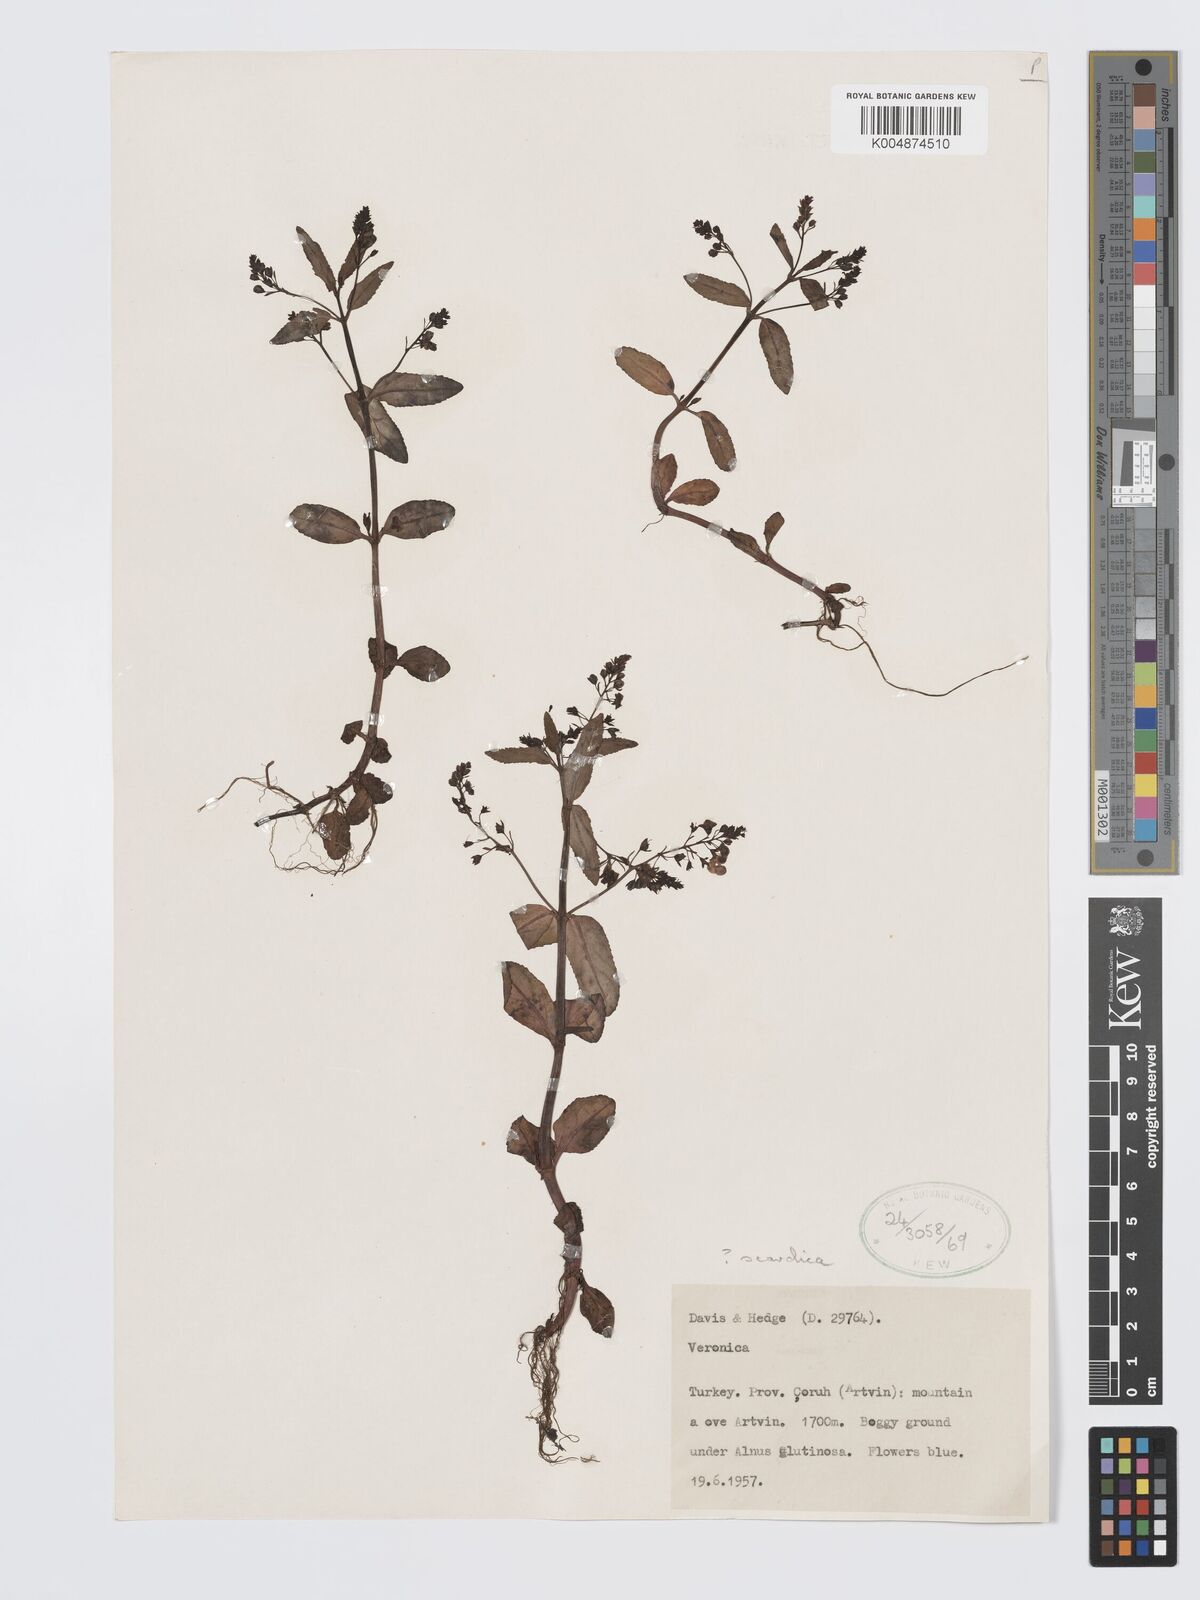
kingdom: Plantae
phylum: Tracheophyta
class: Magnoliopsida
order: Lamiales
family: Plantaginaceae
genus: Veronica
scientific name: Veronica scardica
